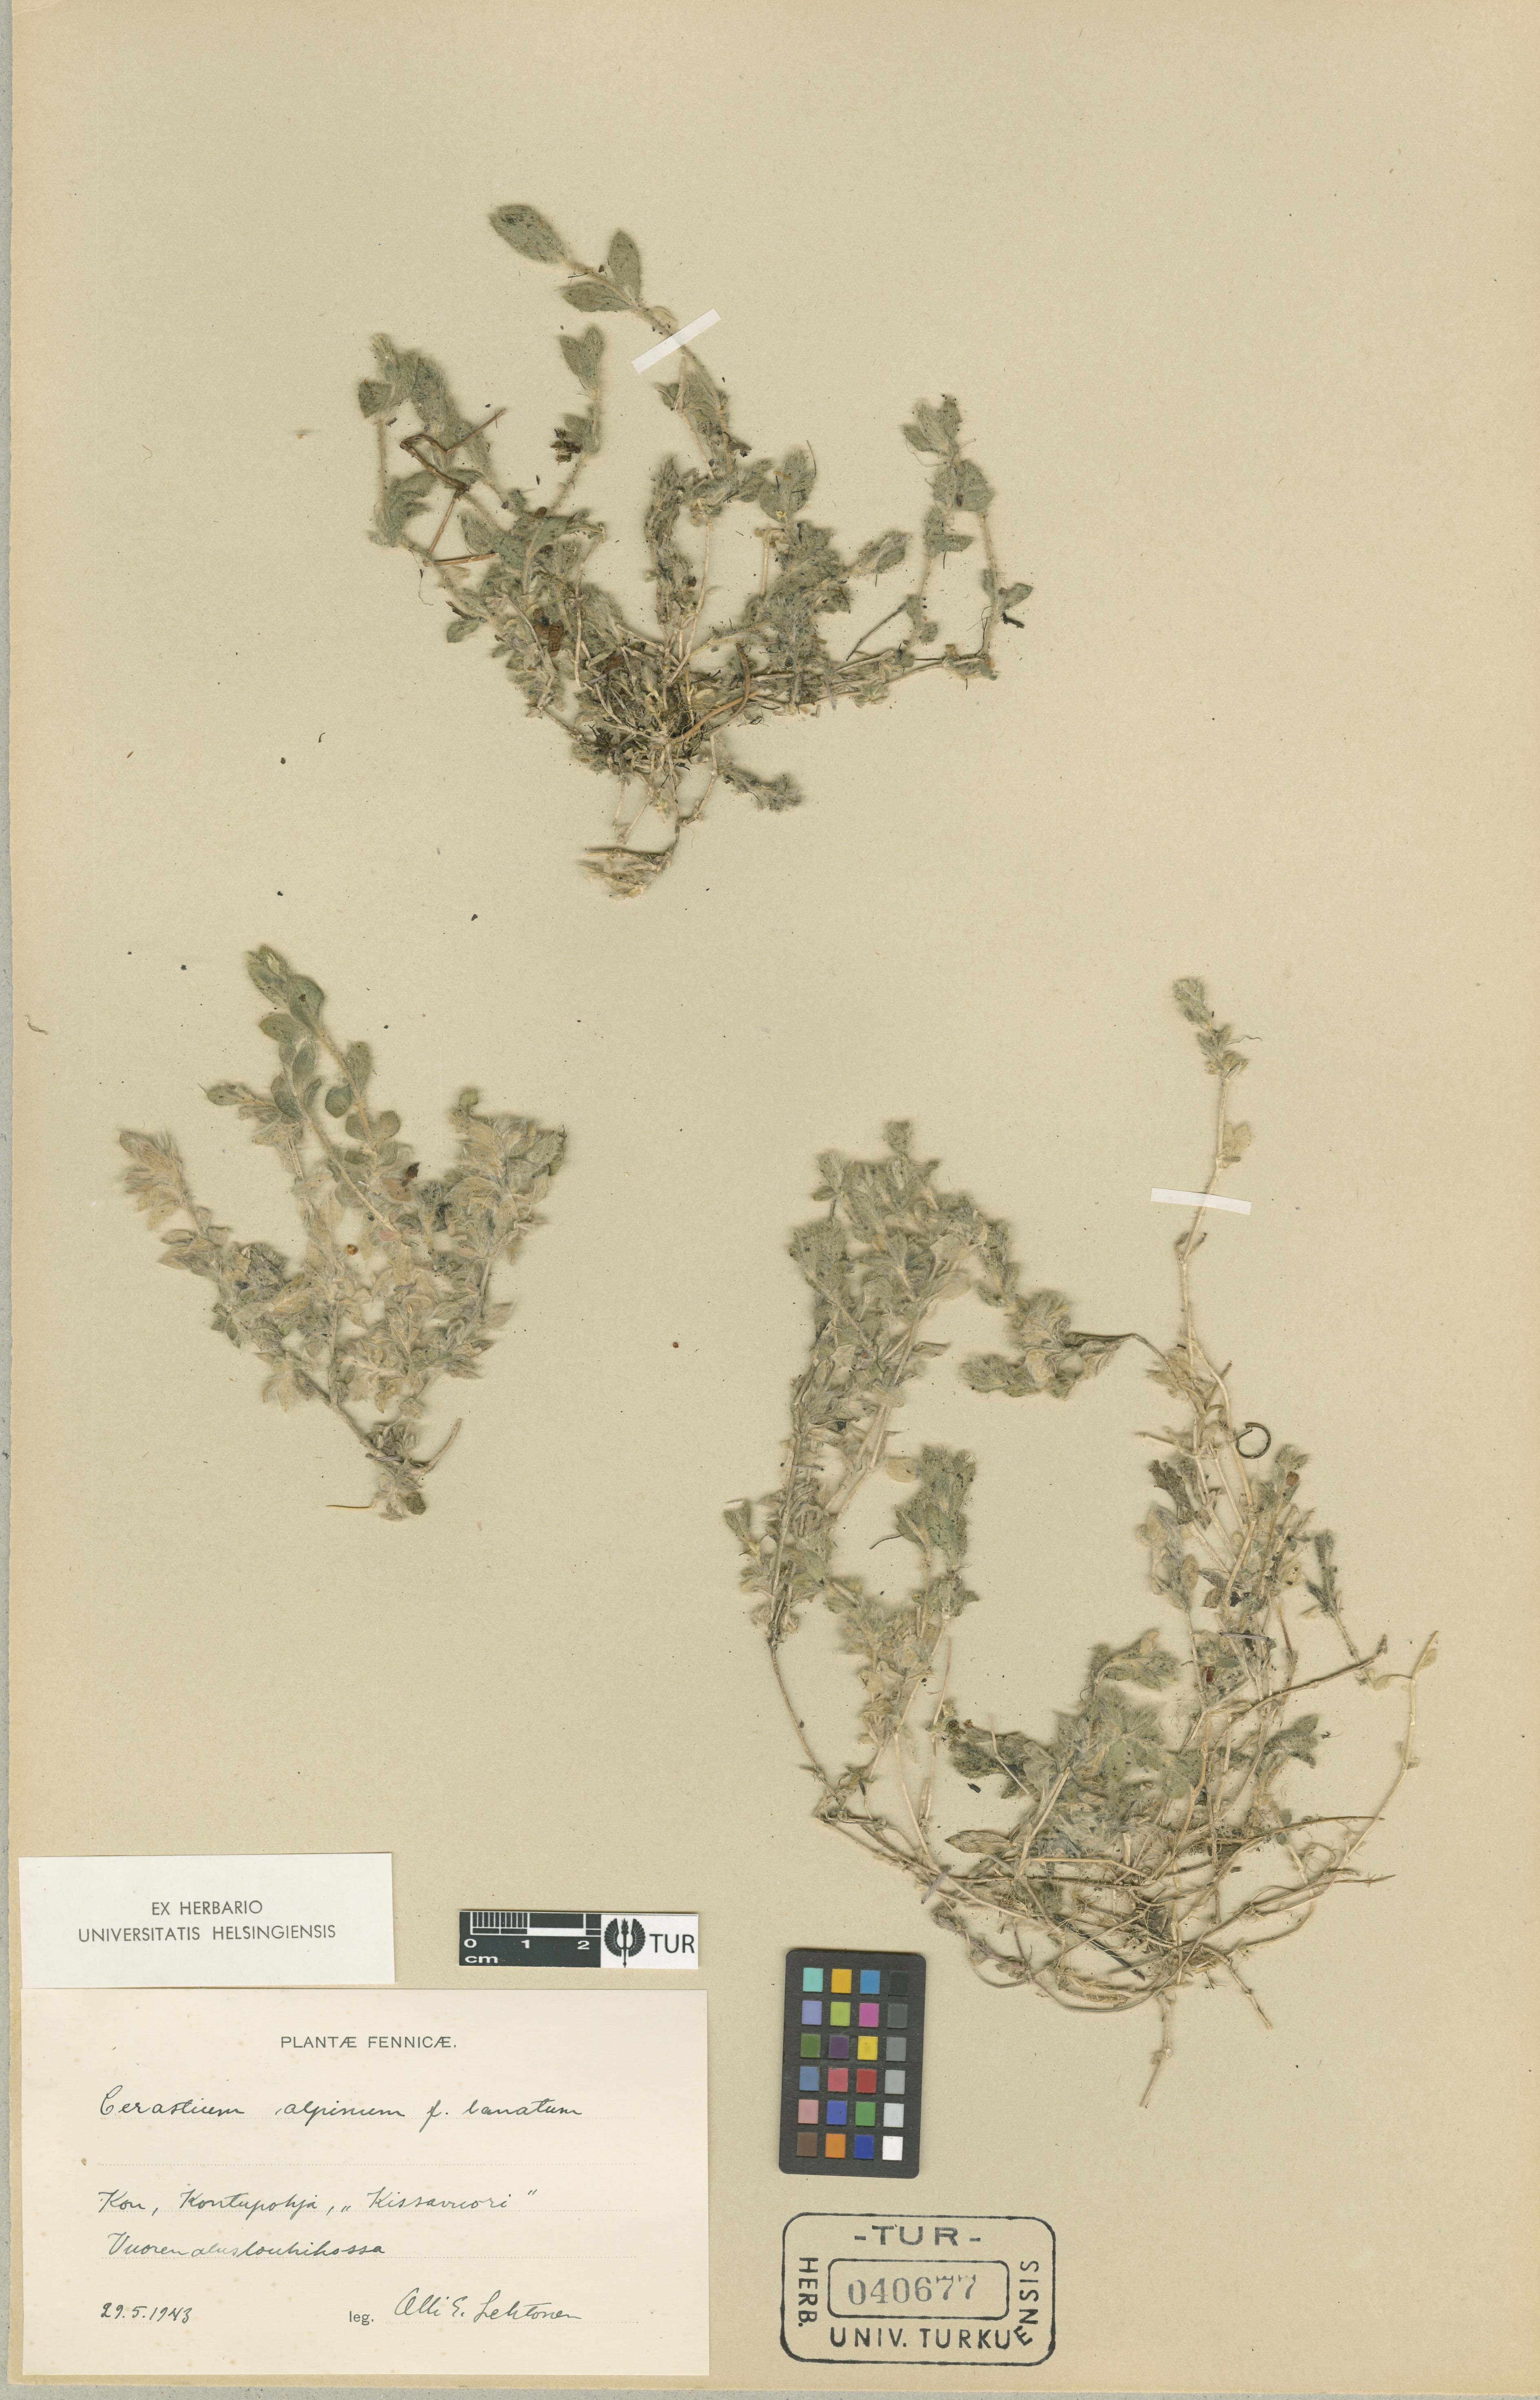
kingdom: Plantae
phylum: Tracheophyta
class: Magnoliopsida
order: Caryophyllales
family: Caryophyllaceae
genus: Cerastium
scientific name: Cerastium alpinum
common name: Alpine mouse-ear
